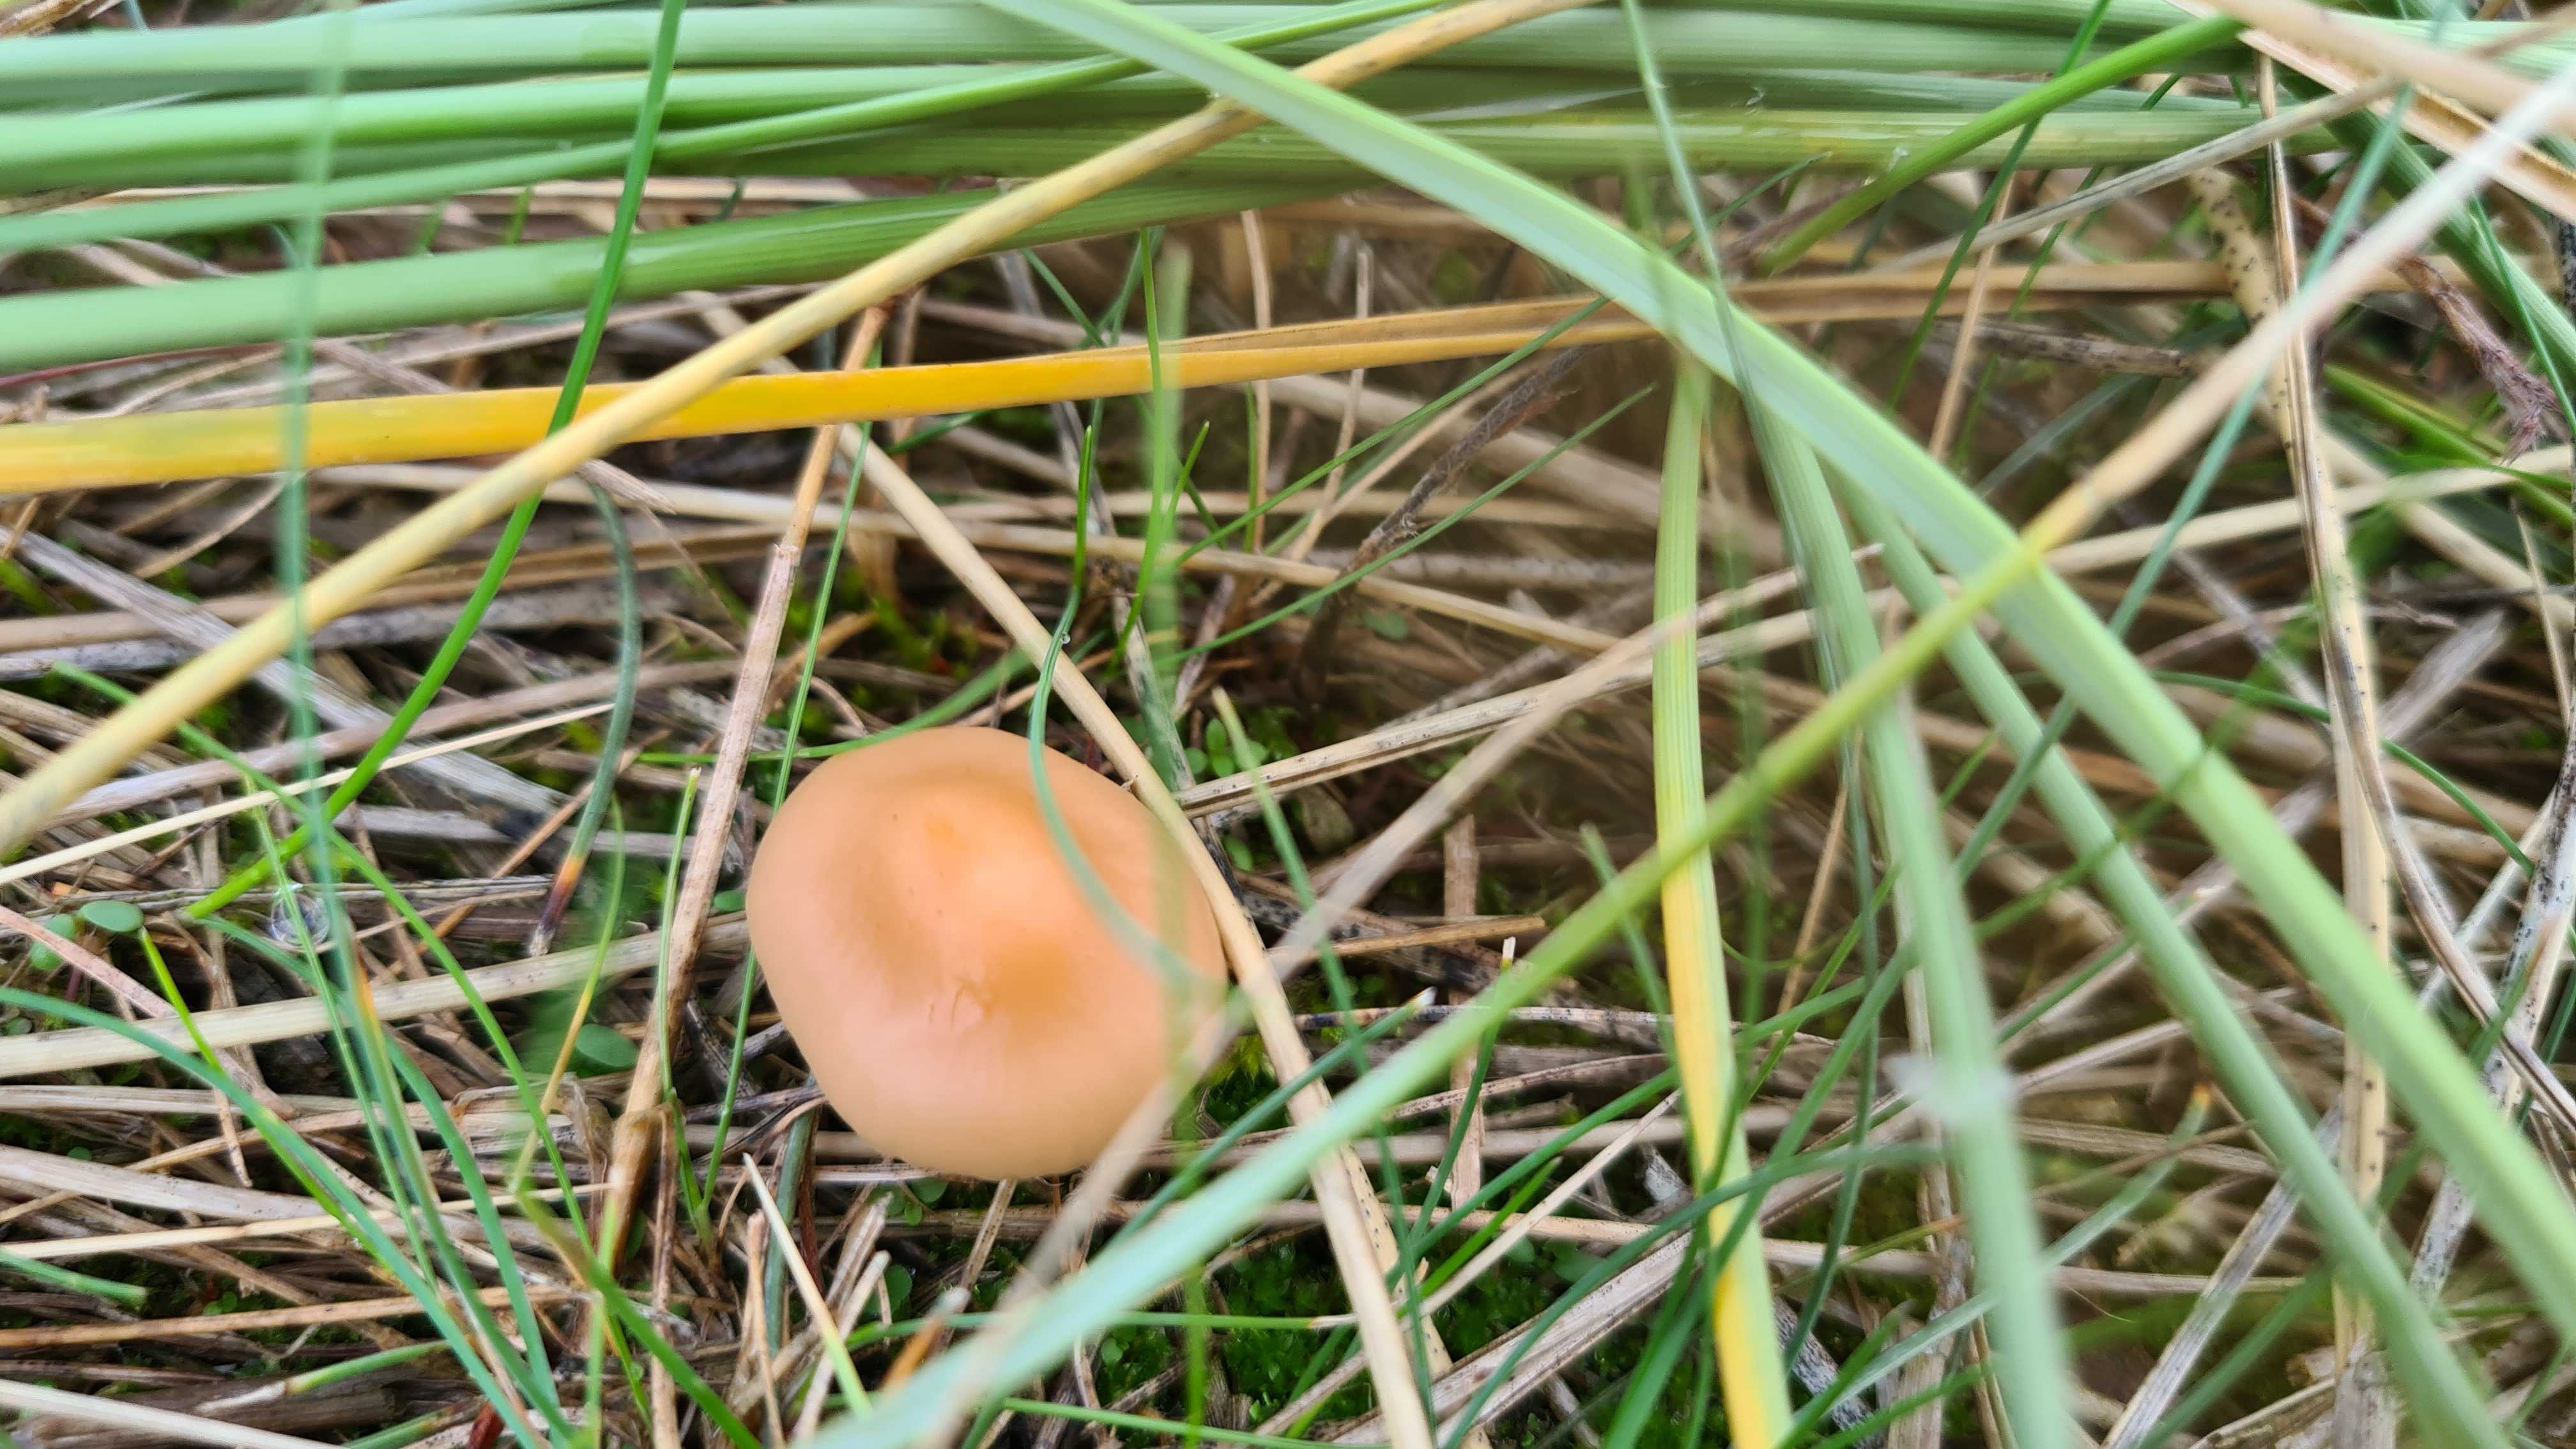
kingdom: Fungi
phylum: Basidiomycota
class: Agaricomycetes
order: Agaricales
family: Marasmiaceae
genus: Marasmius
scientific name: Marasmius oreades
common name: elledans-bruskhat
